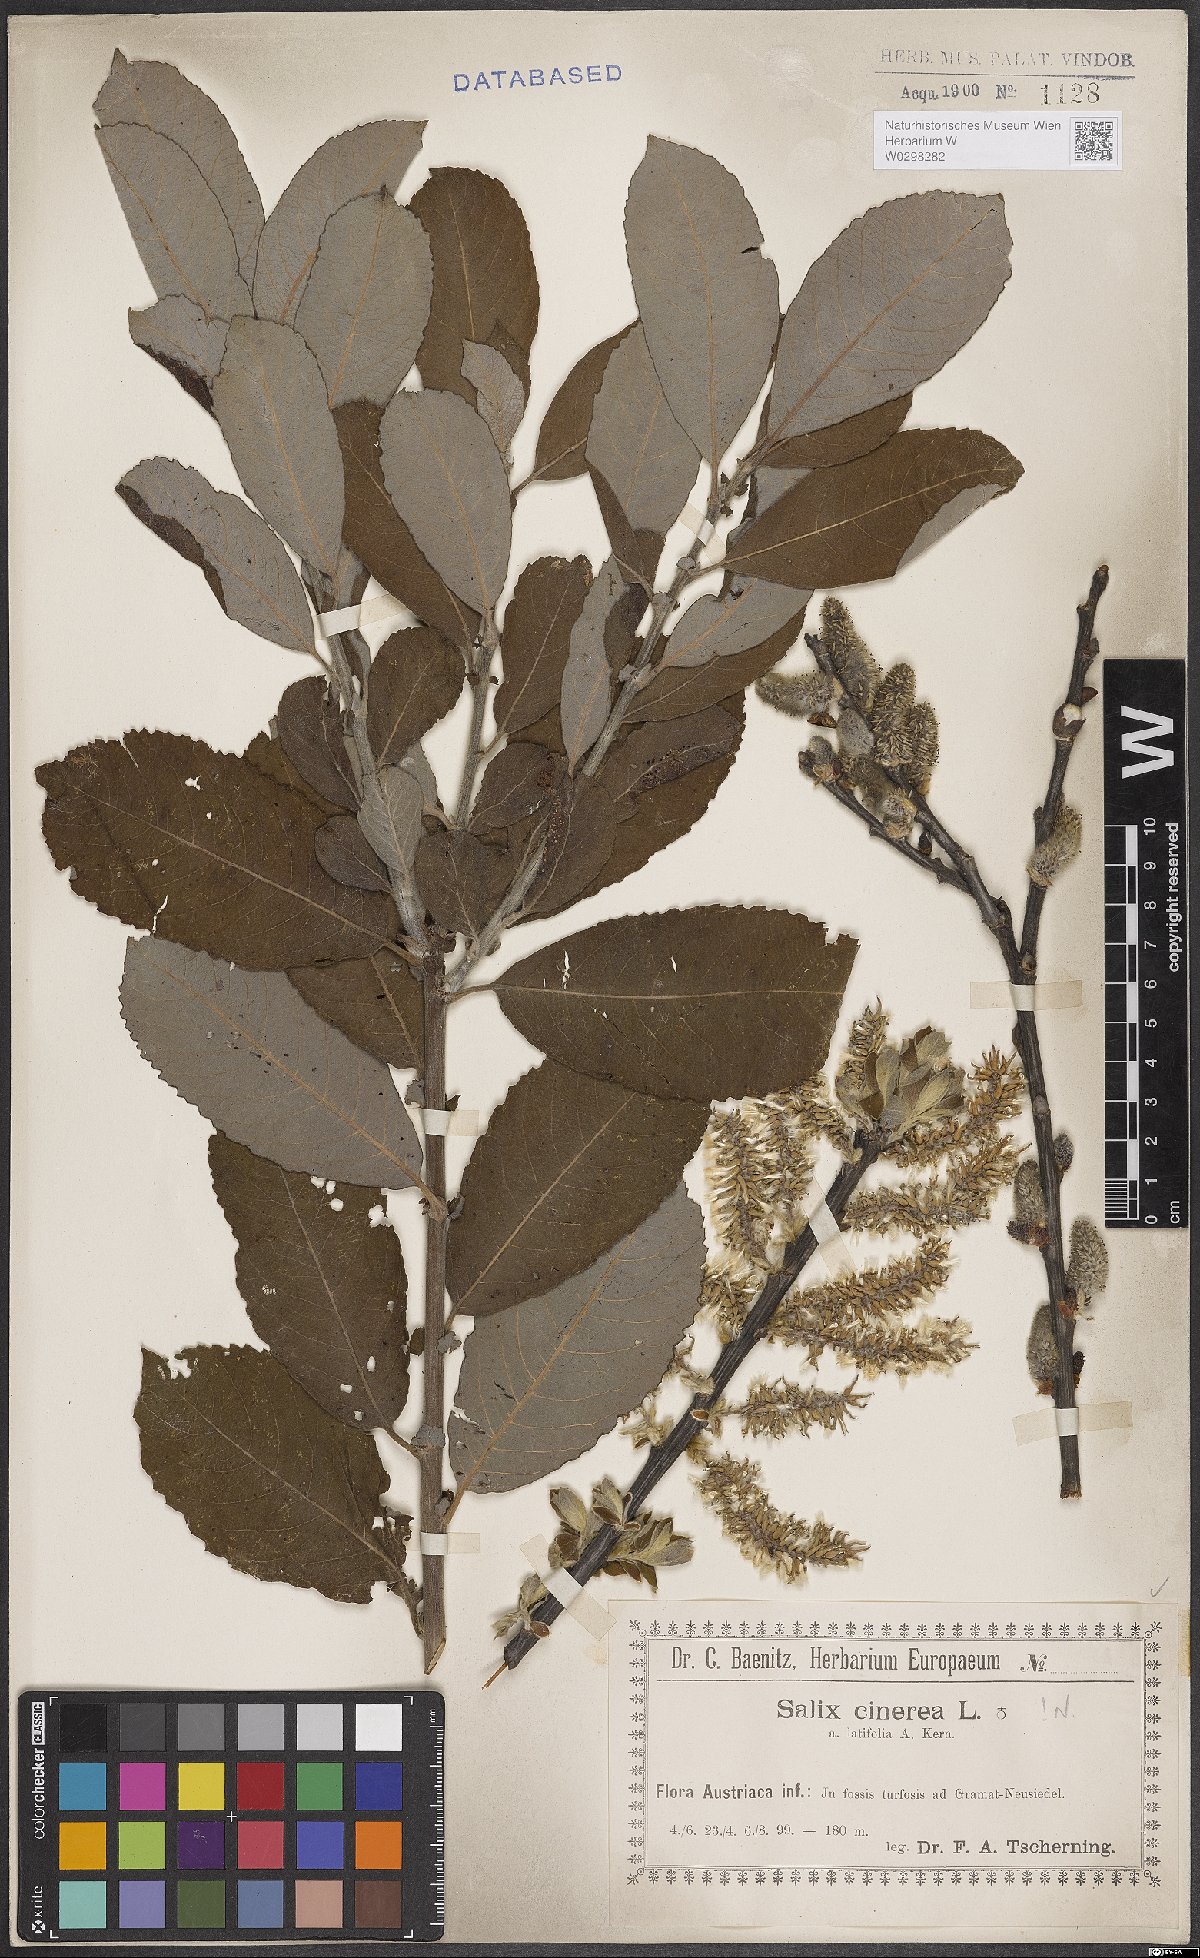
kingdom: Plantae
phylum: Tracheophyta
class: Magnoliopsida
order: Malpighiales
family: Salicaceae
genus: Salix
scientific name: Salix cinerea
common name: Common sallow
